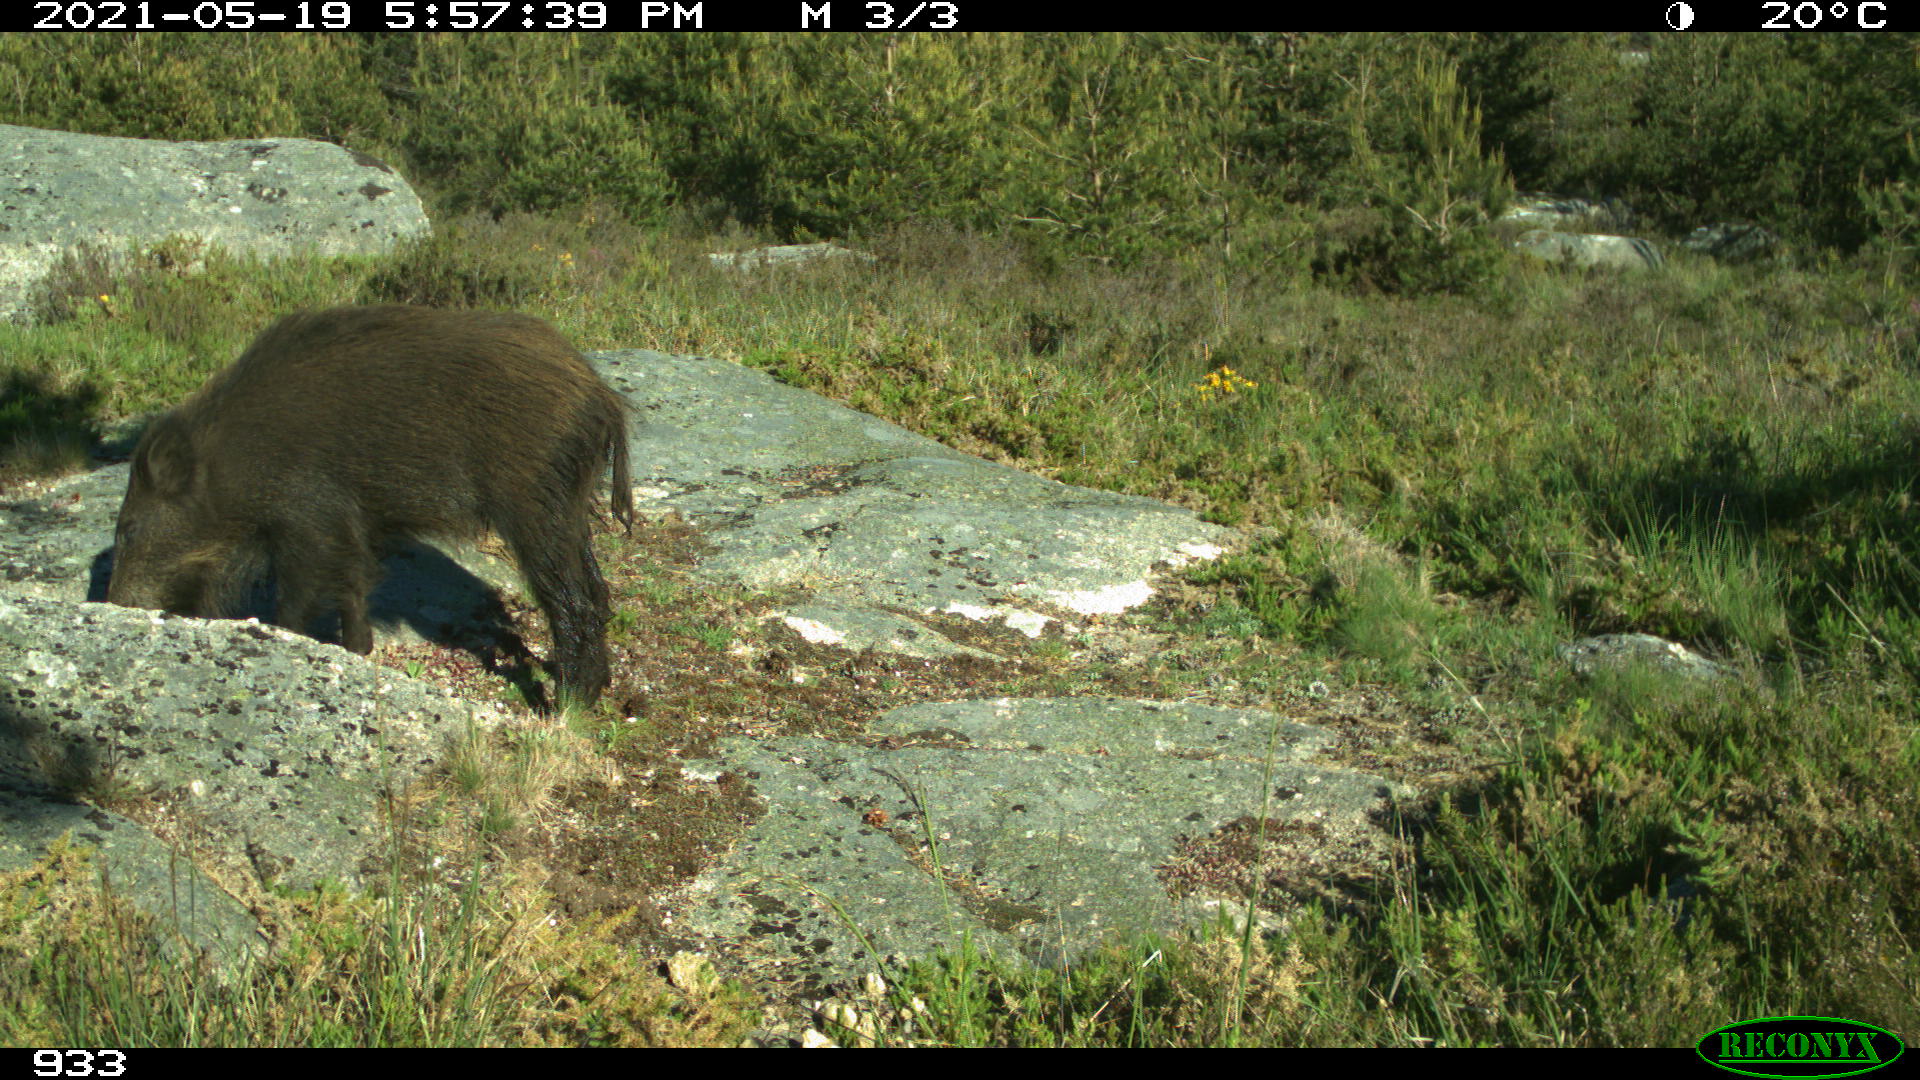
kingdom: Animalia
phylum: Chordata
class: Mammalia
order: Artiodactyla
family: Suidae
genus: Sus
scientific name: Sus scrofa
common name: Wild boar
